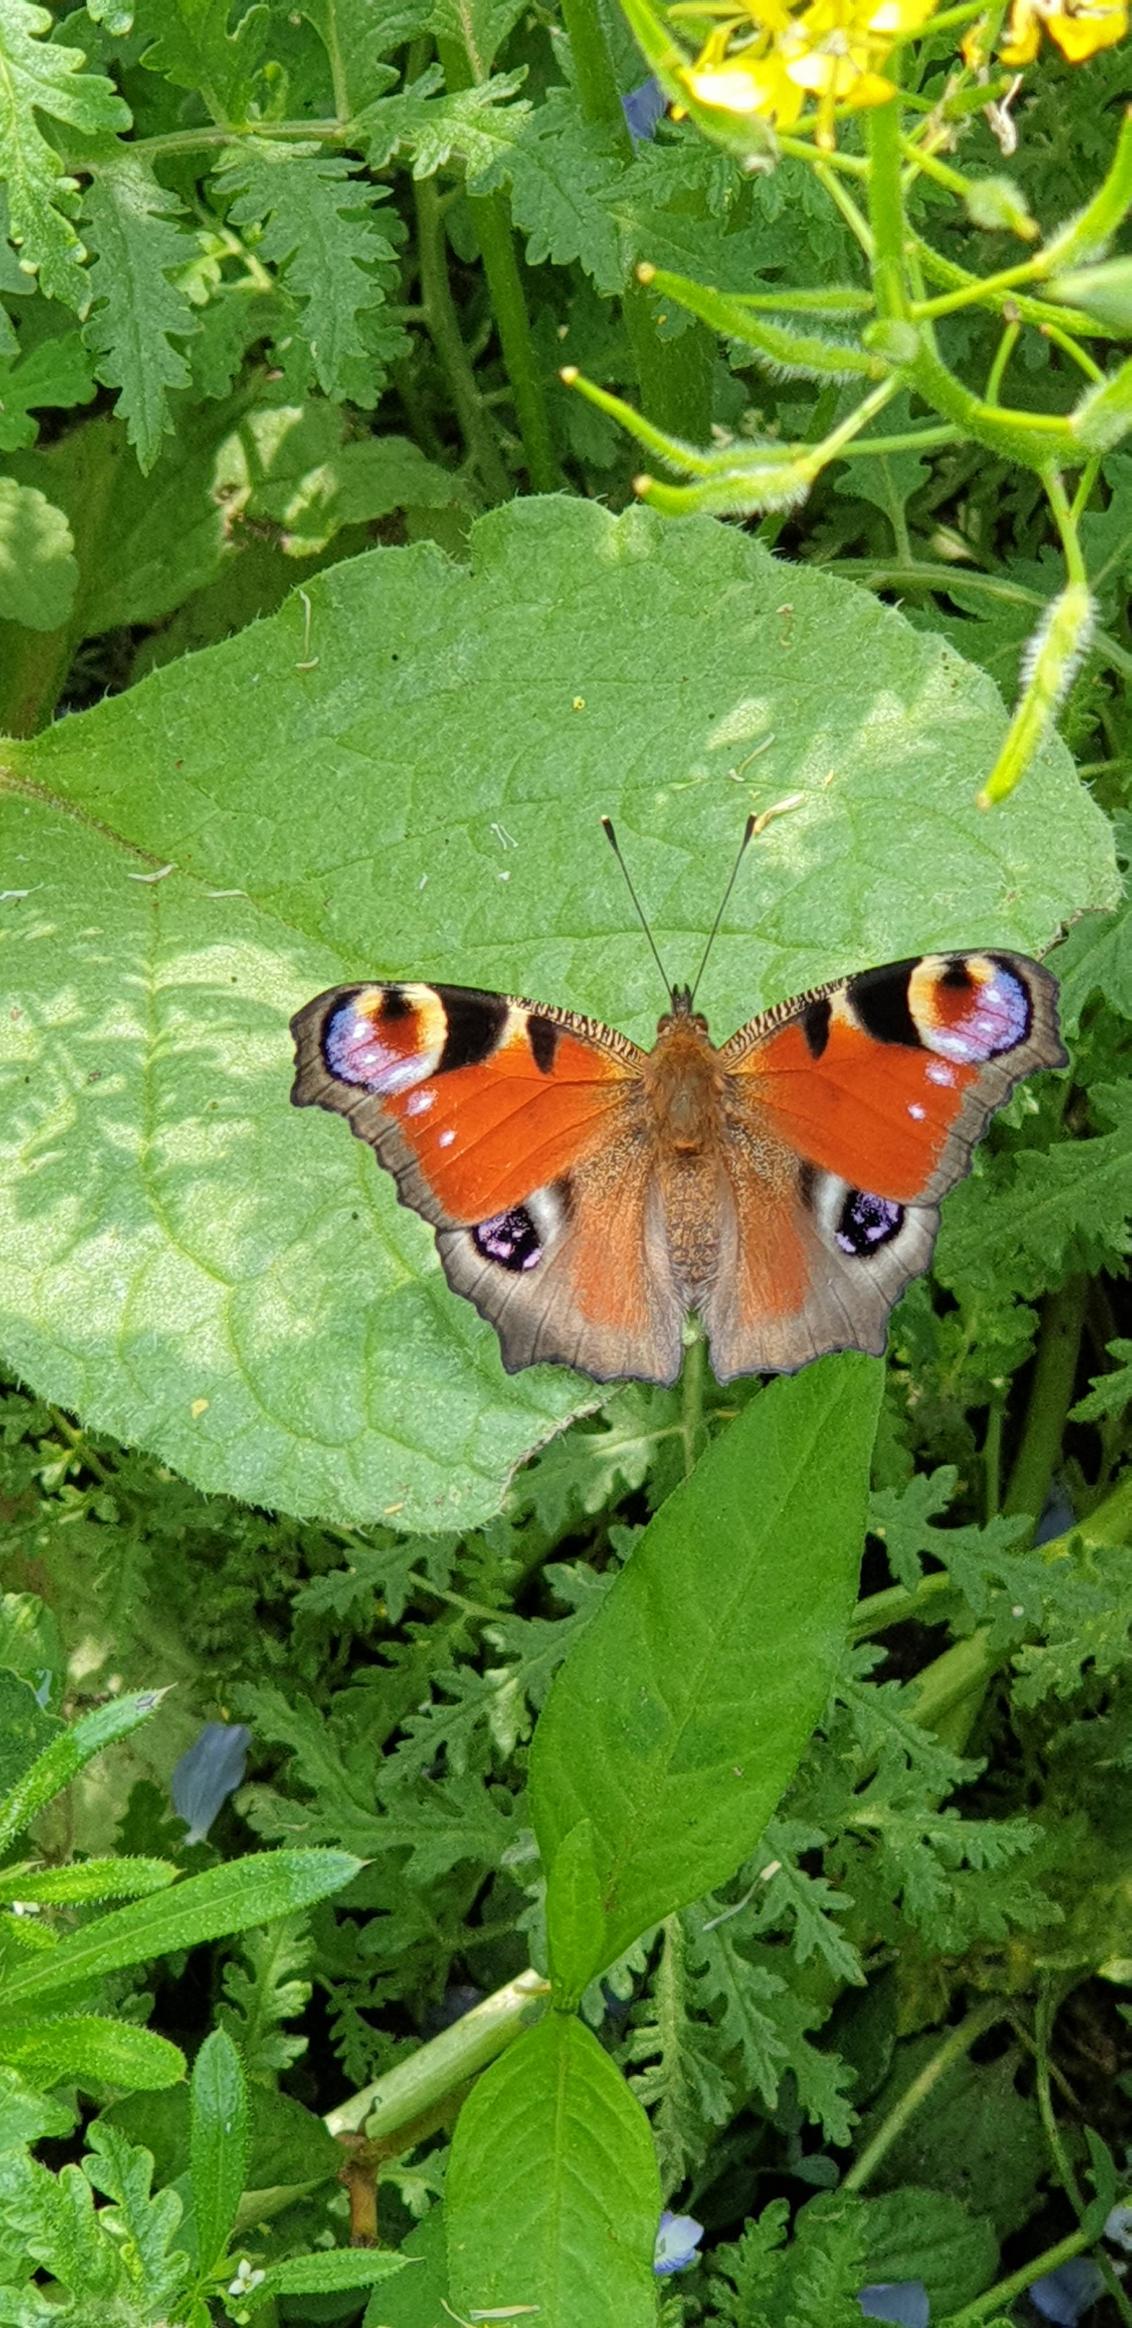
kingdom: Animalia
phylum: Arthropoda
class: Insecta
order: Lepidoptera
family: Nymphalidae
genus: Aglais
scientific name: Aglais io
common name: Dagpåfugleøje
